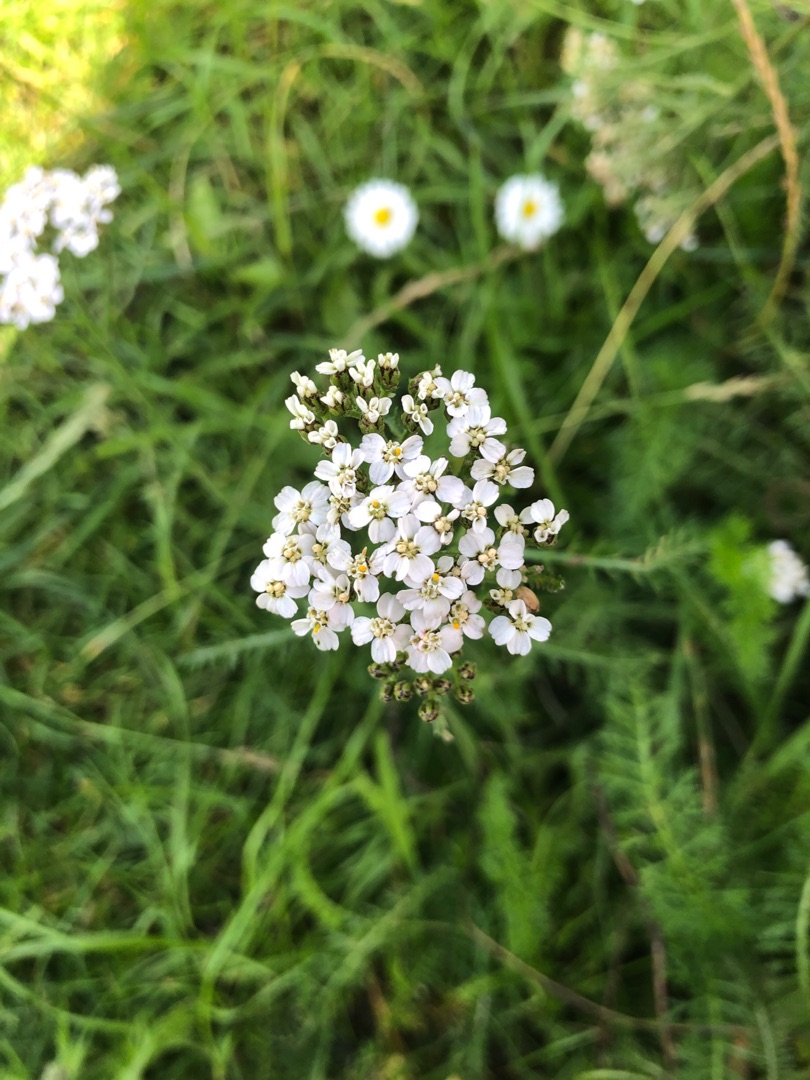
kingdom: Plantae
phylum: Tracheophyta
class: Magnoliopsida
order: Asterales
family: Asteraceae
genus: Achillea
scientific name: Achillea millefolium
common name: Almindelig røllike
